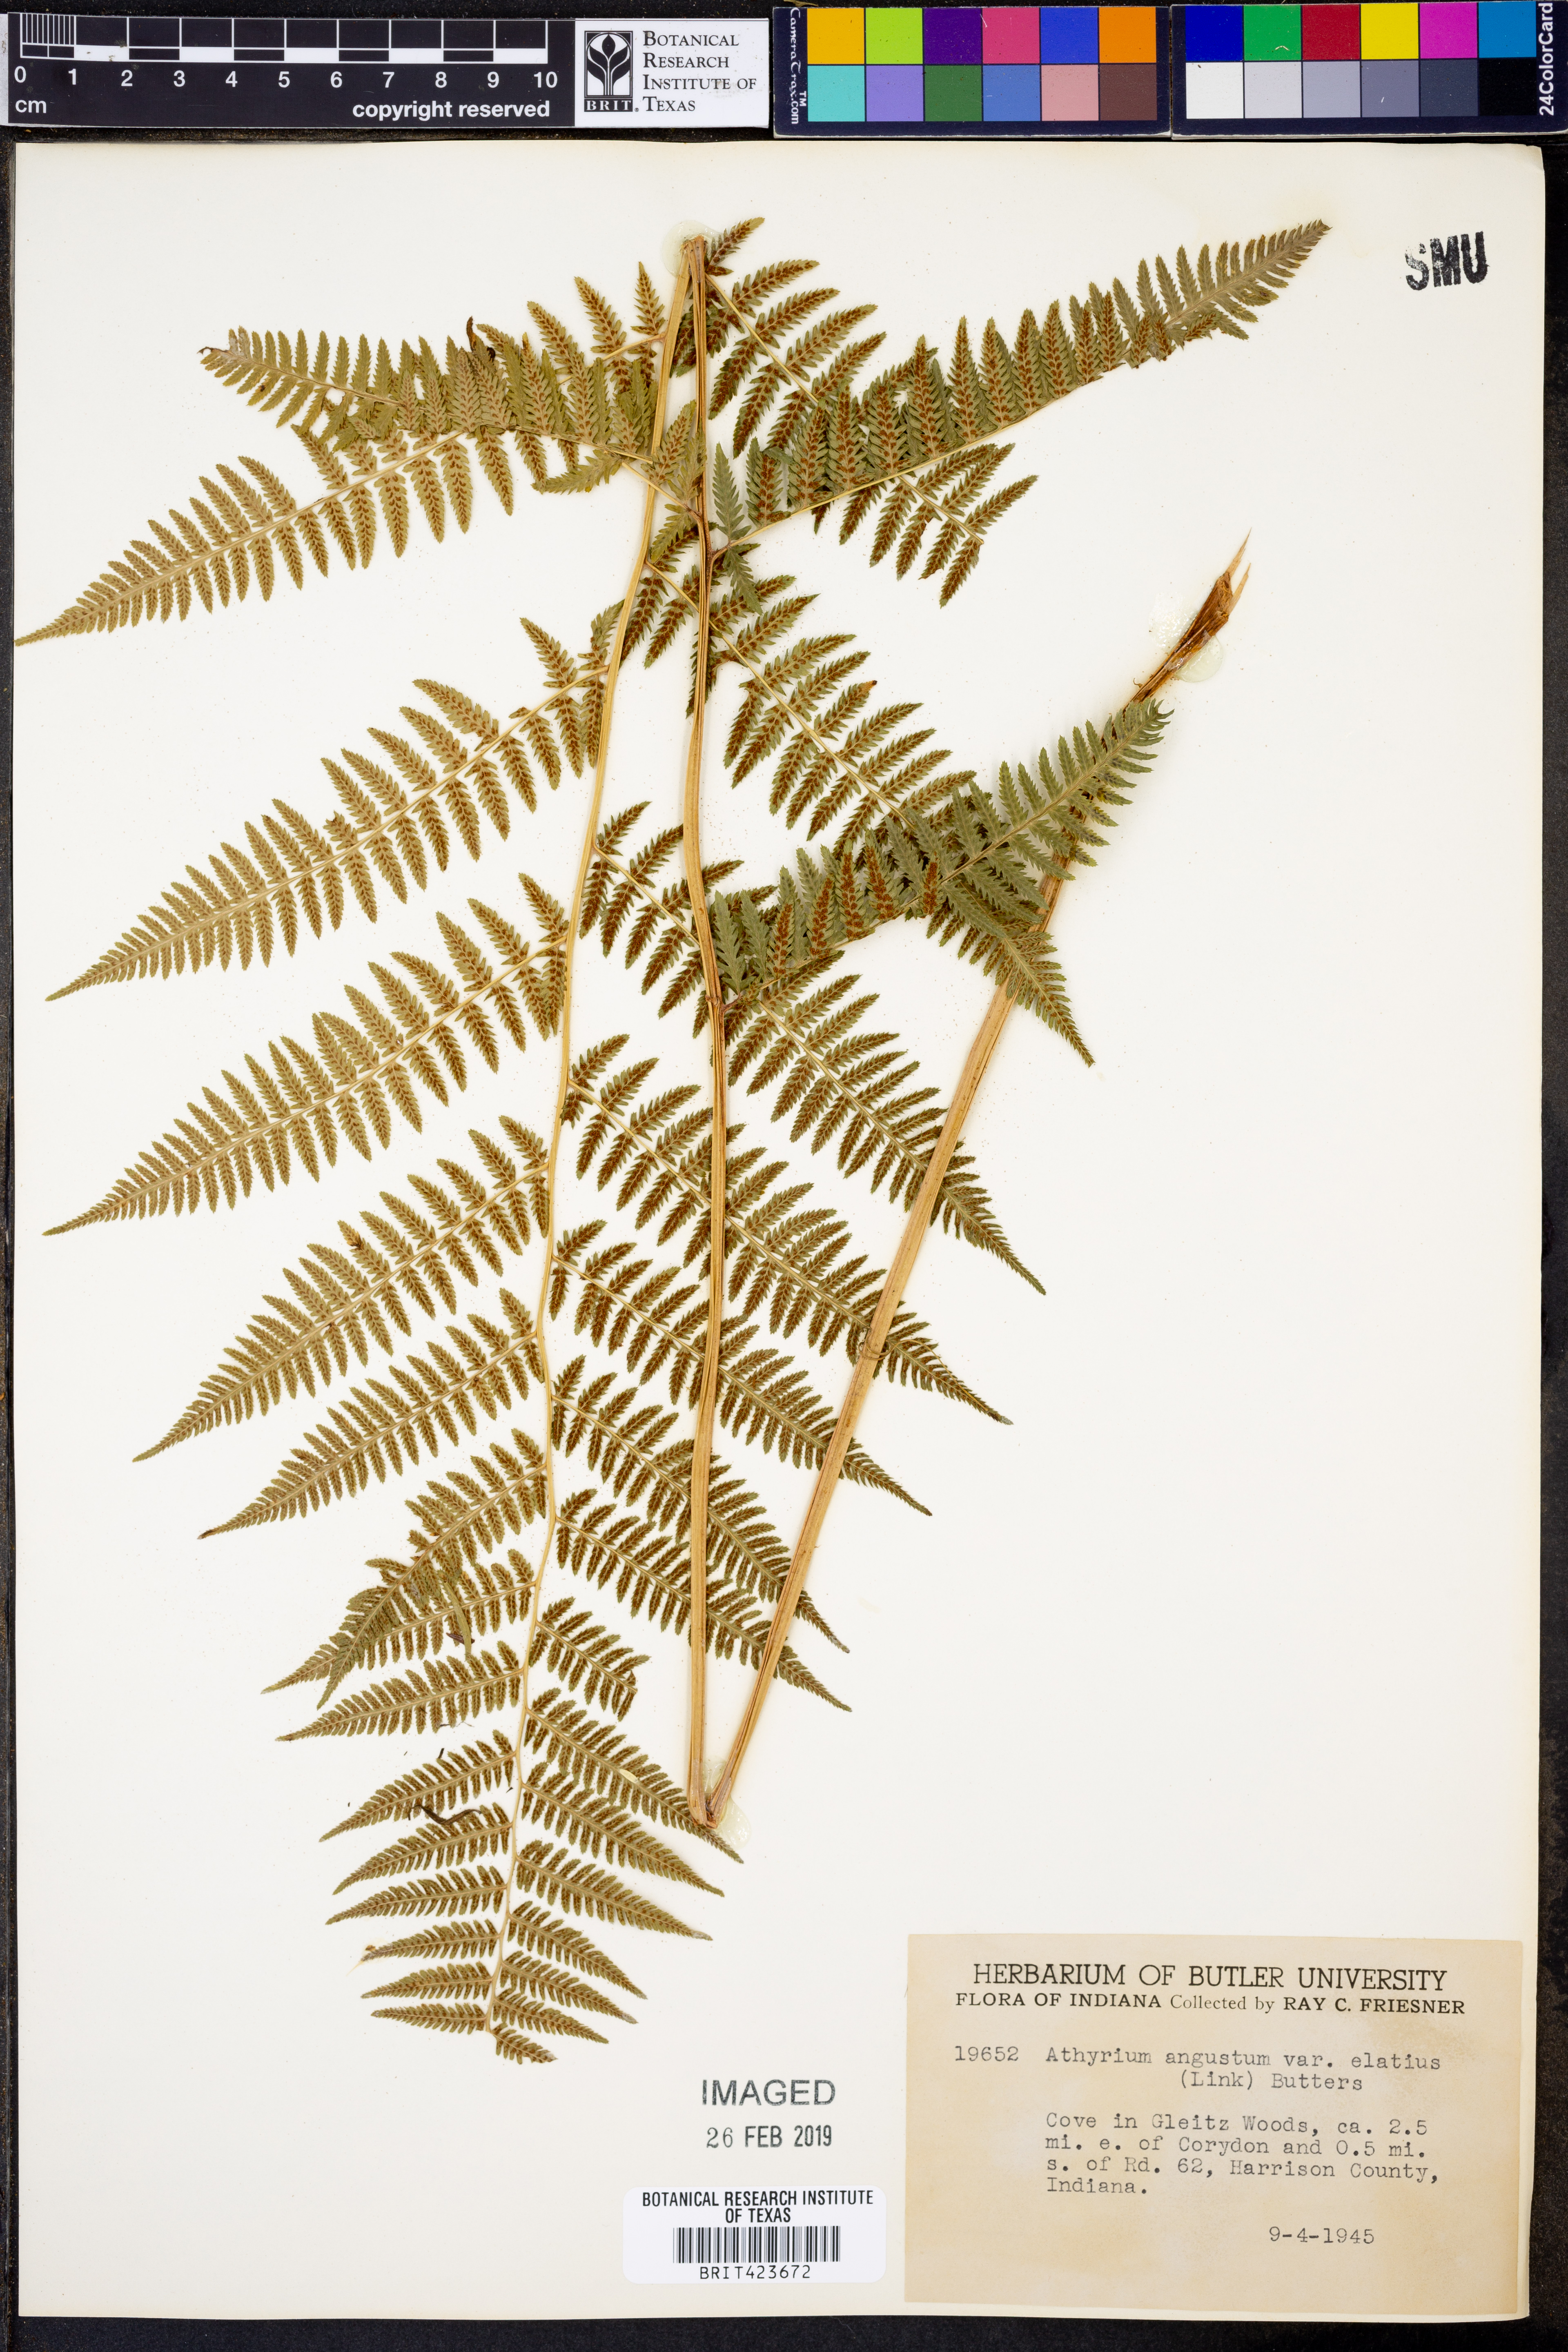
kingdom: Plantae
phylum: Tracheophyta
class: Polypodiopsida
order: Polypodiales
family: Athyriaceae
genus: Athyrium
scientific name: Athyrium cyclosorum
